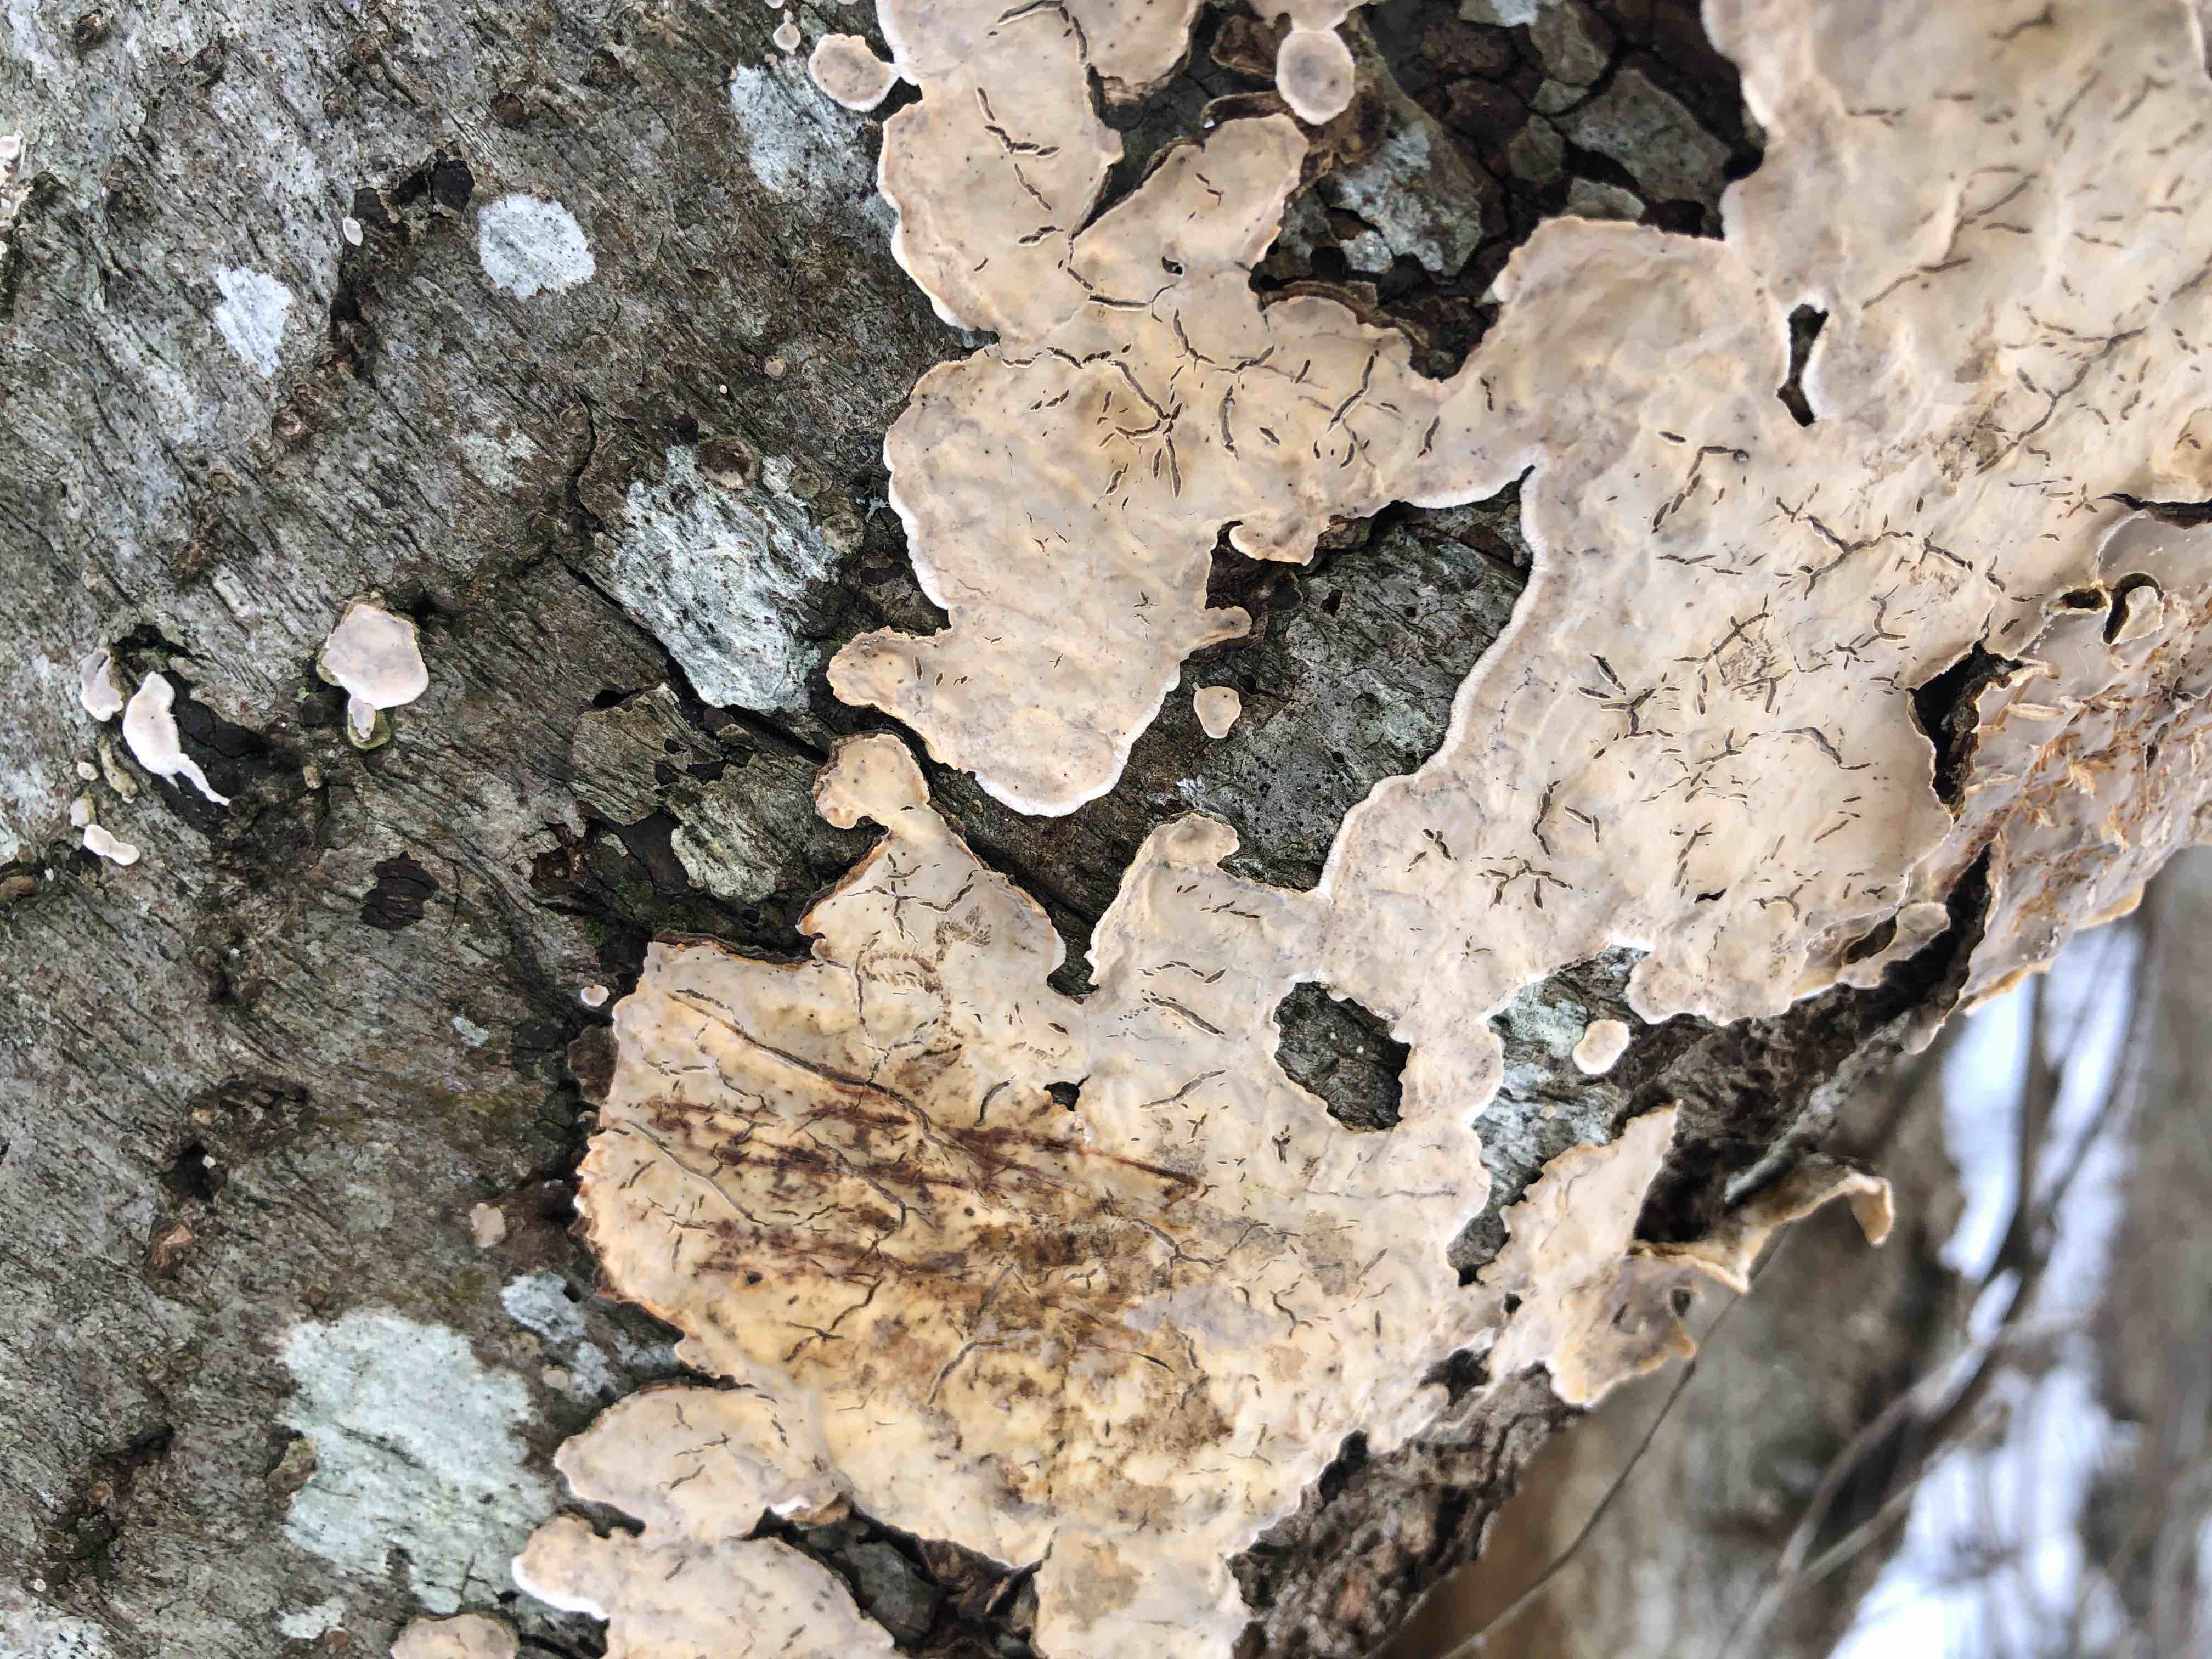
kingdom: Fungi
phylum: Basidiomycota
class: Agaricomycetes
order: Russulales
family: Stereaceae
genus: Stereum
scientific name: Stereum rugosum
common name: rynket lædersvamp
